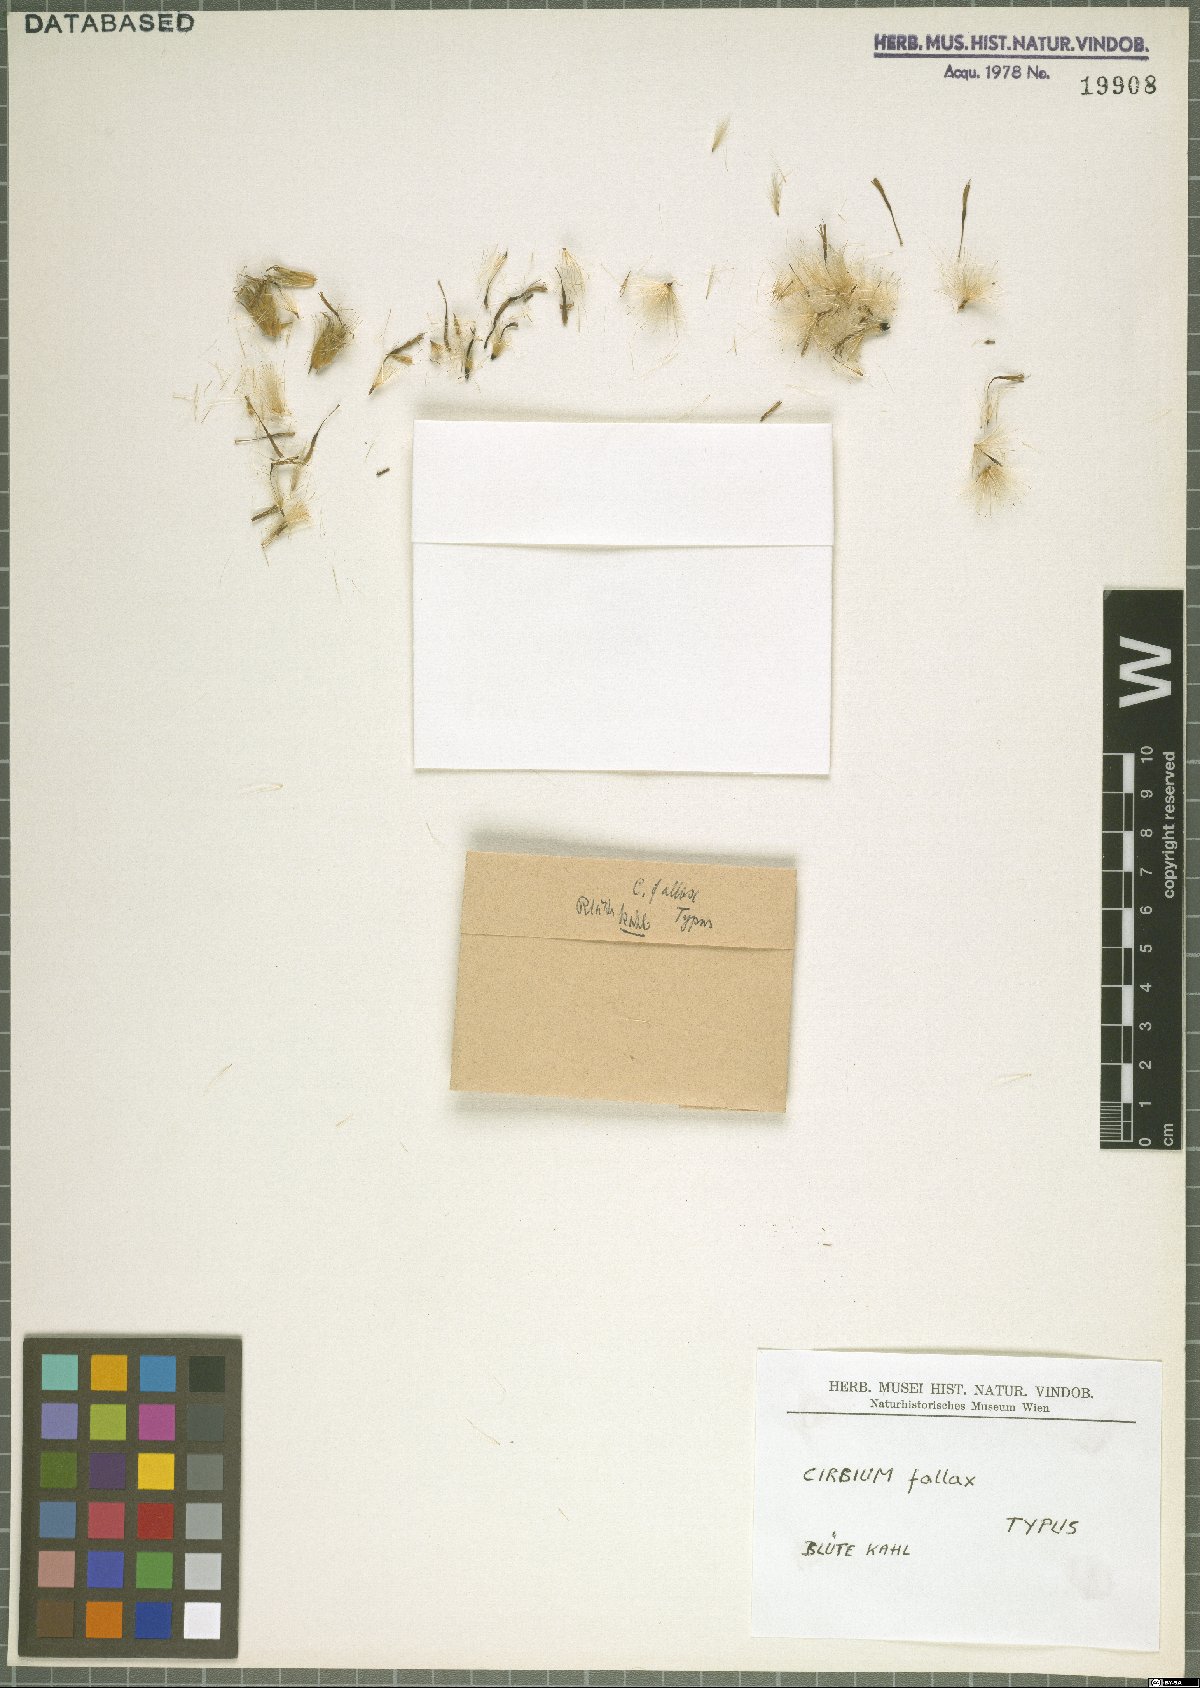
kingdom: Plantae
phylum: Tracheophyta
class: Magnoliopsida
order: Asterales
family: Asteraceae
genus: Lophiolepis
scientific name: Lophiolepis adunca
